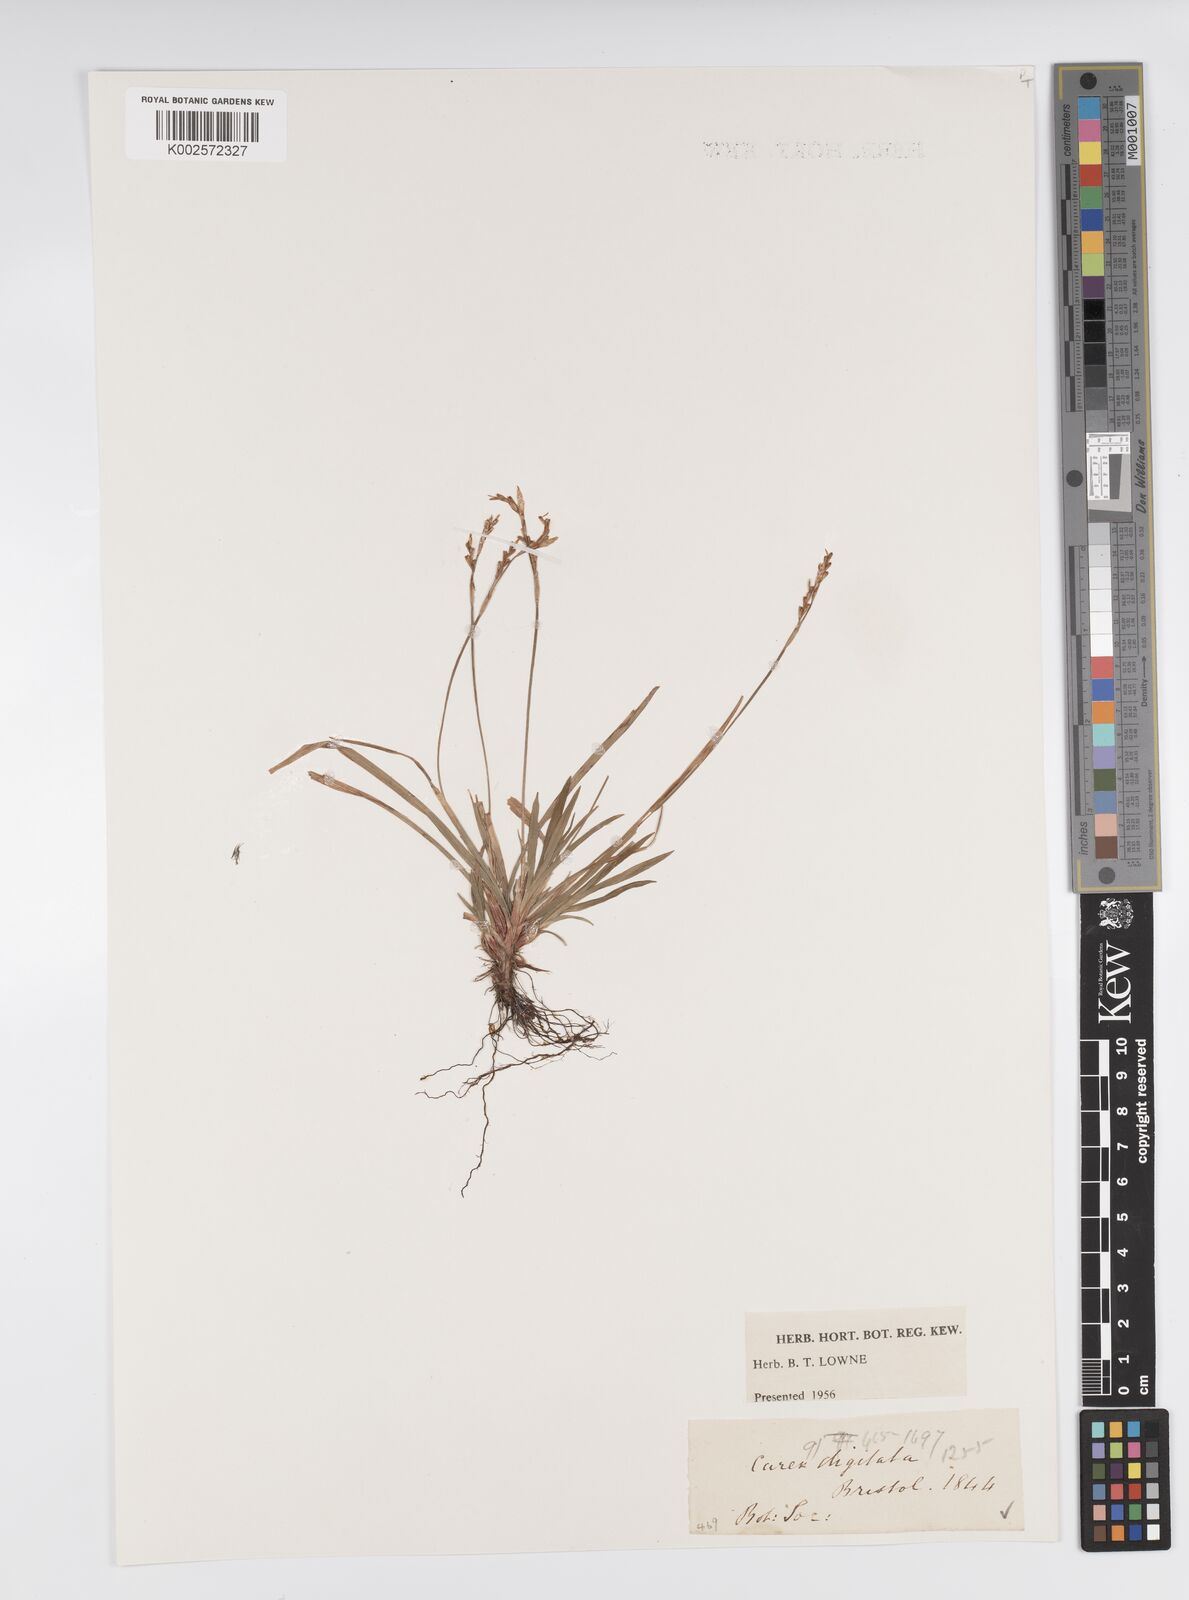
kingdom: Plantae
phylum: Tracheophyta
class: Liliopsida
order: Poales
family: Cyperaceae
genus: Carex
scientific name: Carex digitata
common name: Fingered sedge
